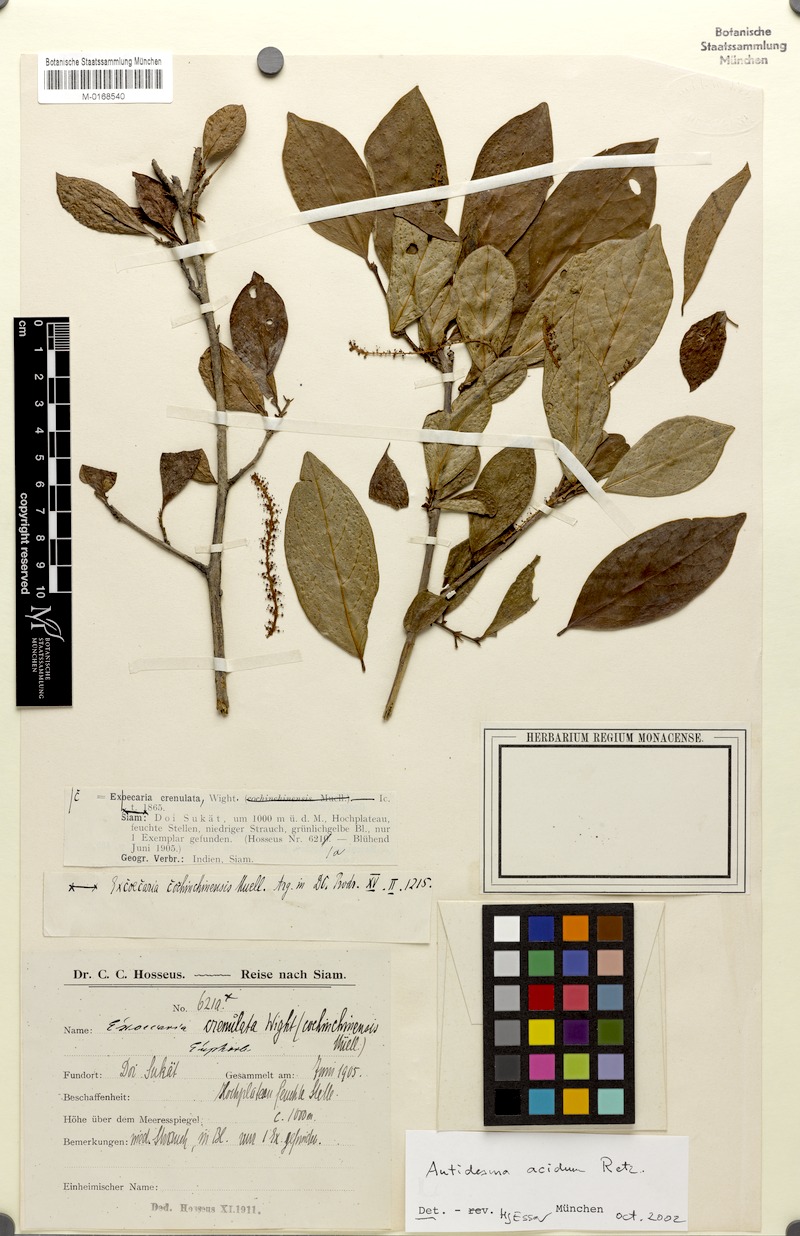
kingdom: Plantae
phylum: Tracheophyta
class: Magnoliopsida
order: Malpighiales
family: Phyllanthaceae
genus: Antidesma
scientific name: Antidesma acidum
